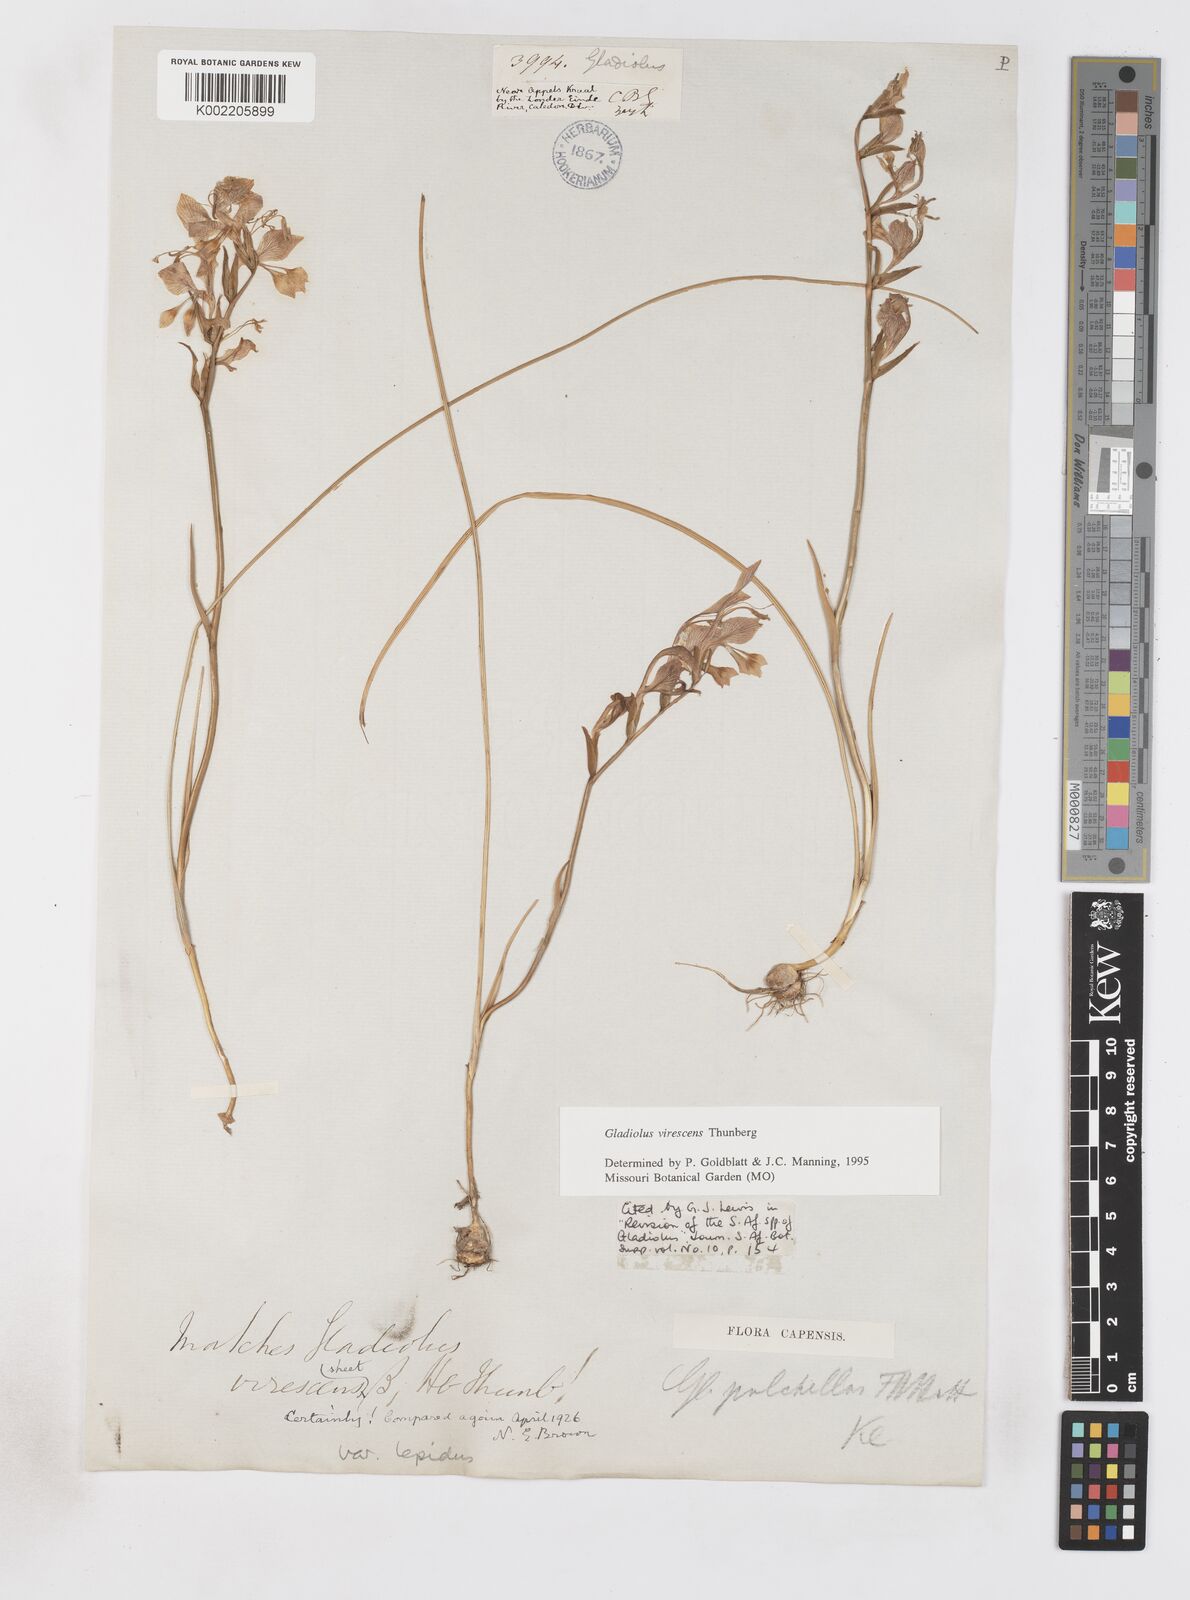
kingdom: Plantae
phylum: Tracheophyta
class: Liliopsida
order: Asparagales
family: Iridaceae
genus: Gladiolus
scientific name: Gladiolus virescens
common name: Yellow kalkoentjie
